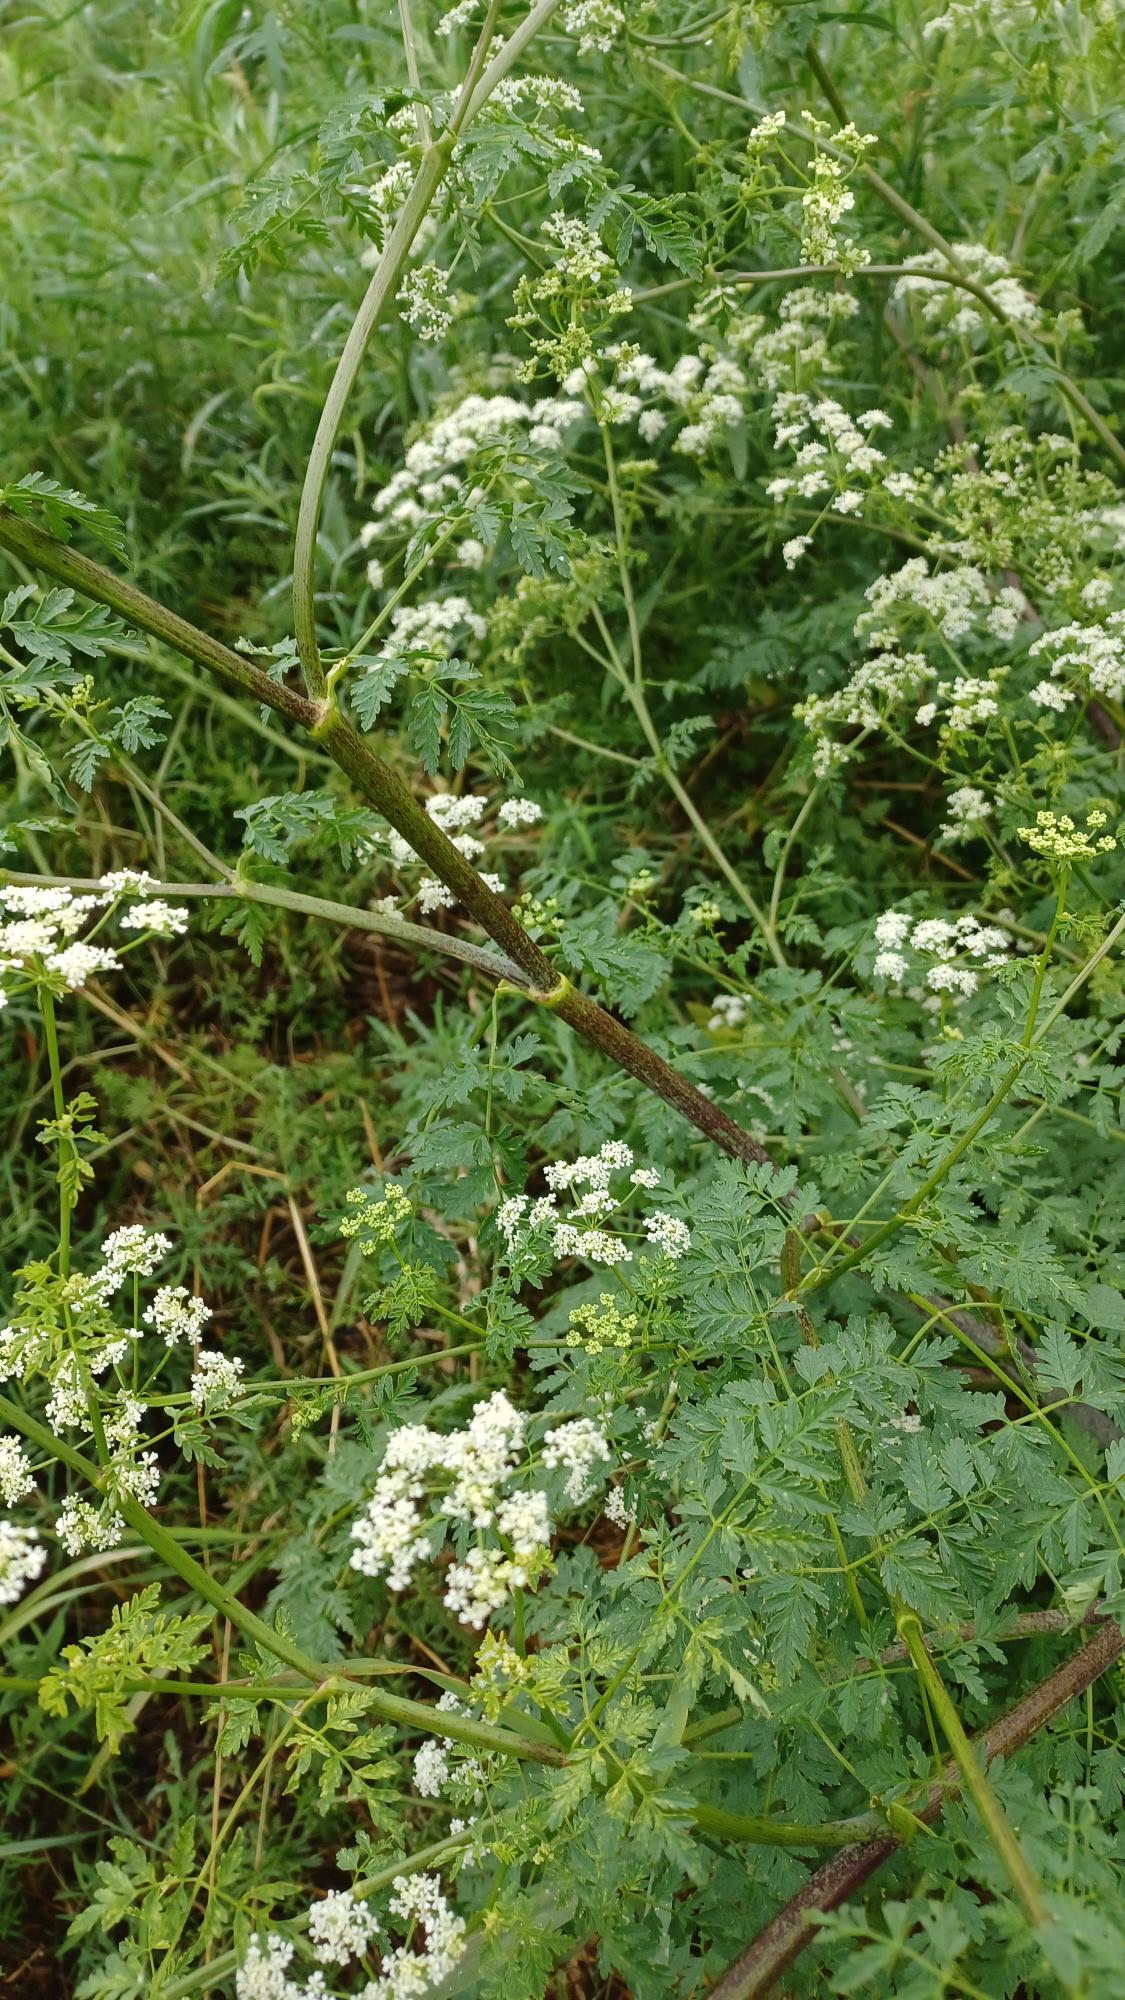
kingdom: Plantae
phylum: Tracheophyta
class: Magnoliopsida
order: Apiales
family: Apiaceae
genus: Conium
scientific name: Conium maculatum
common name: Skarntyde
